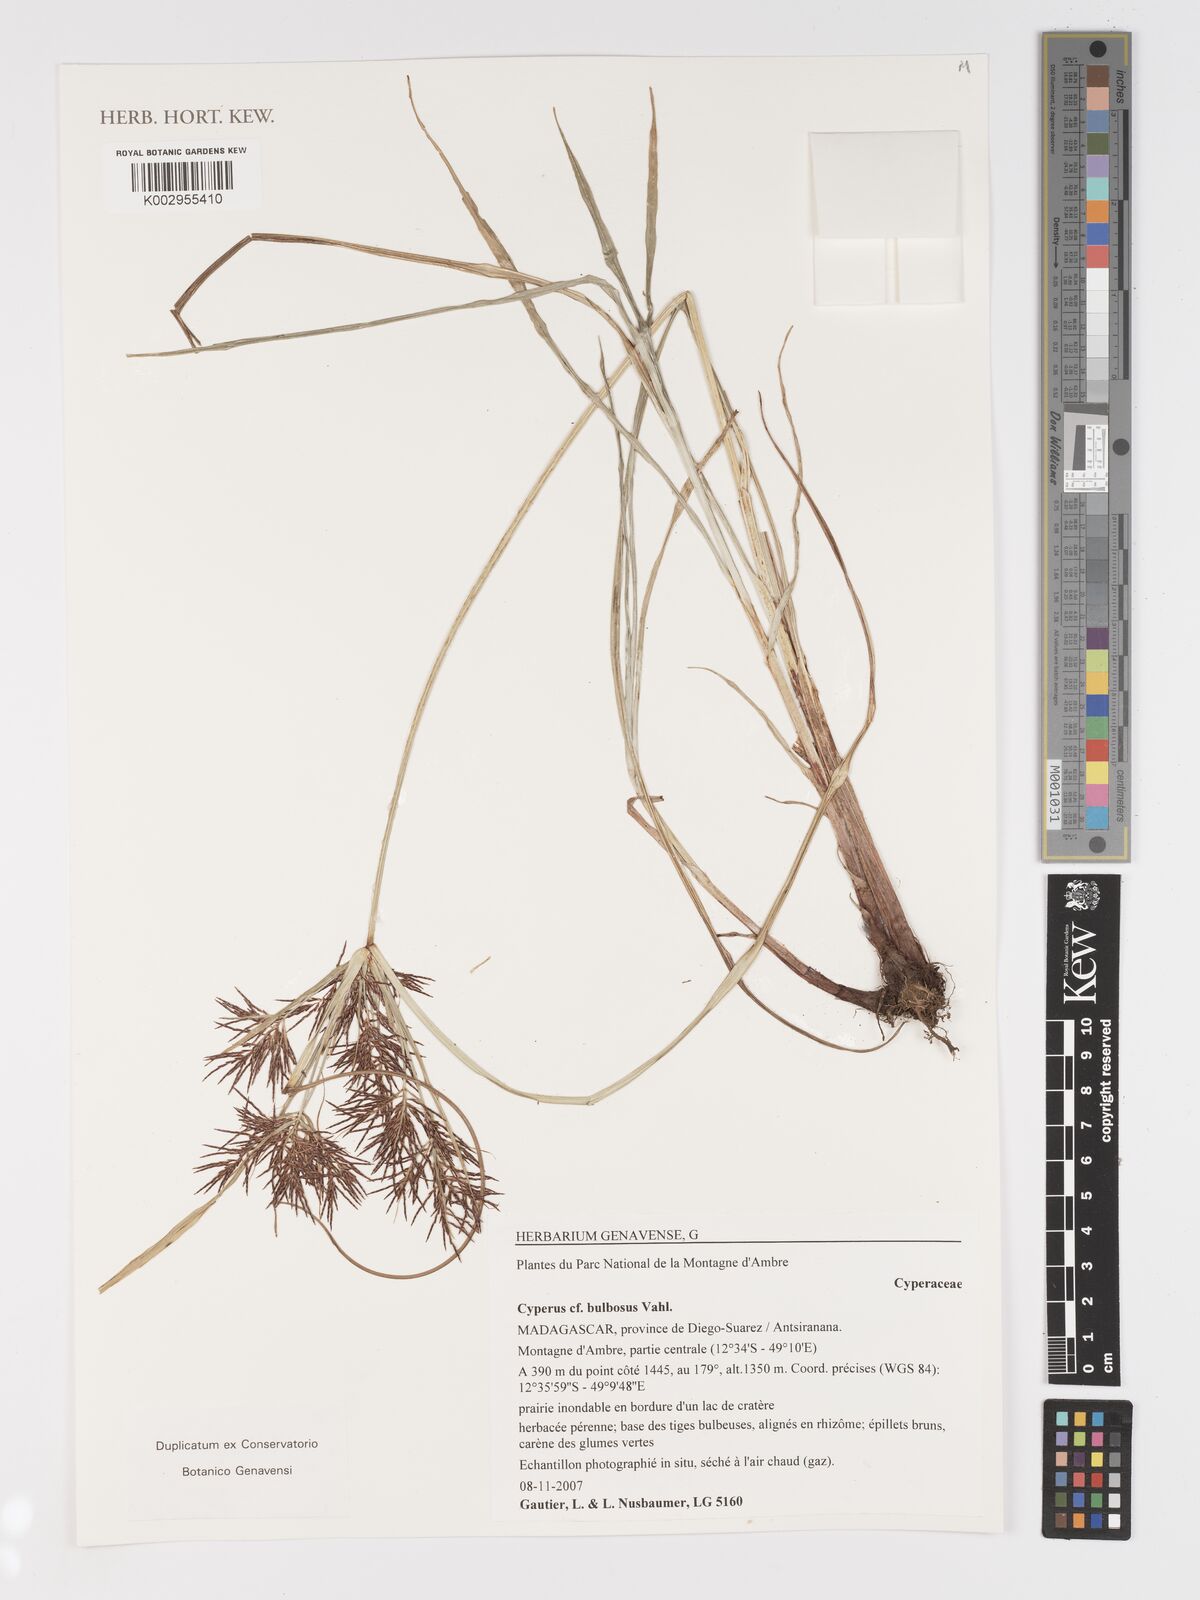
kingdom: Plantae
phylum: Tracheophyta
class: Liliopsida
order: Poales
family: Cyperaceae
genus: Cyperus
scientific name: Cyperus bulbosus
